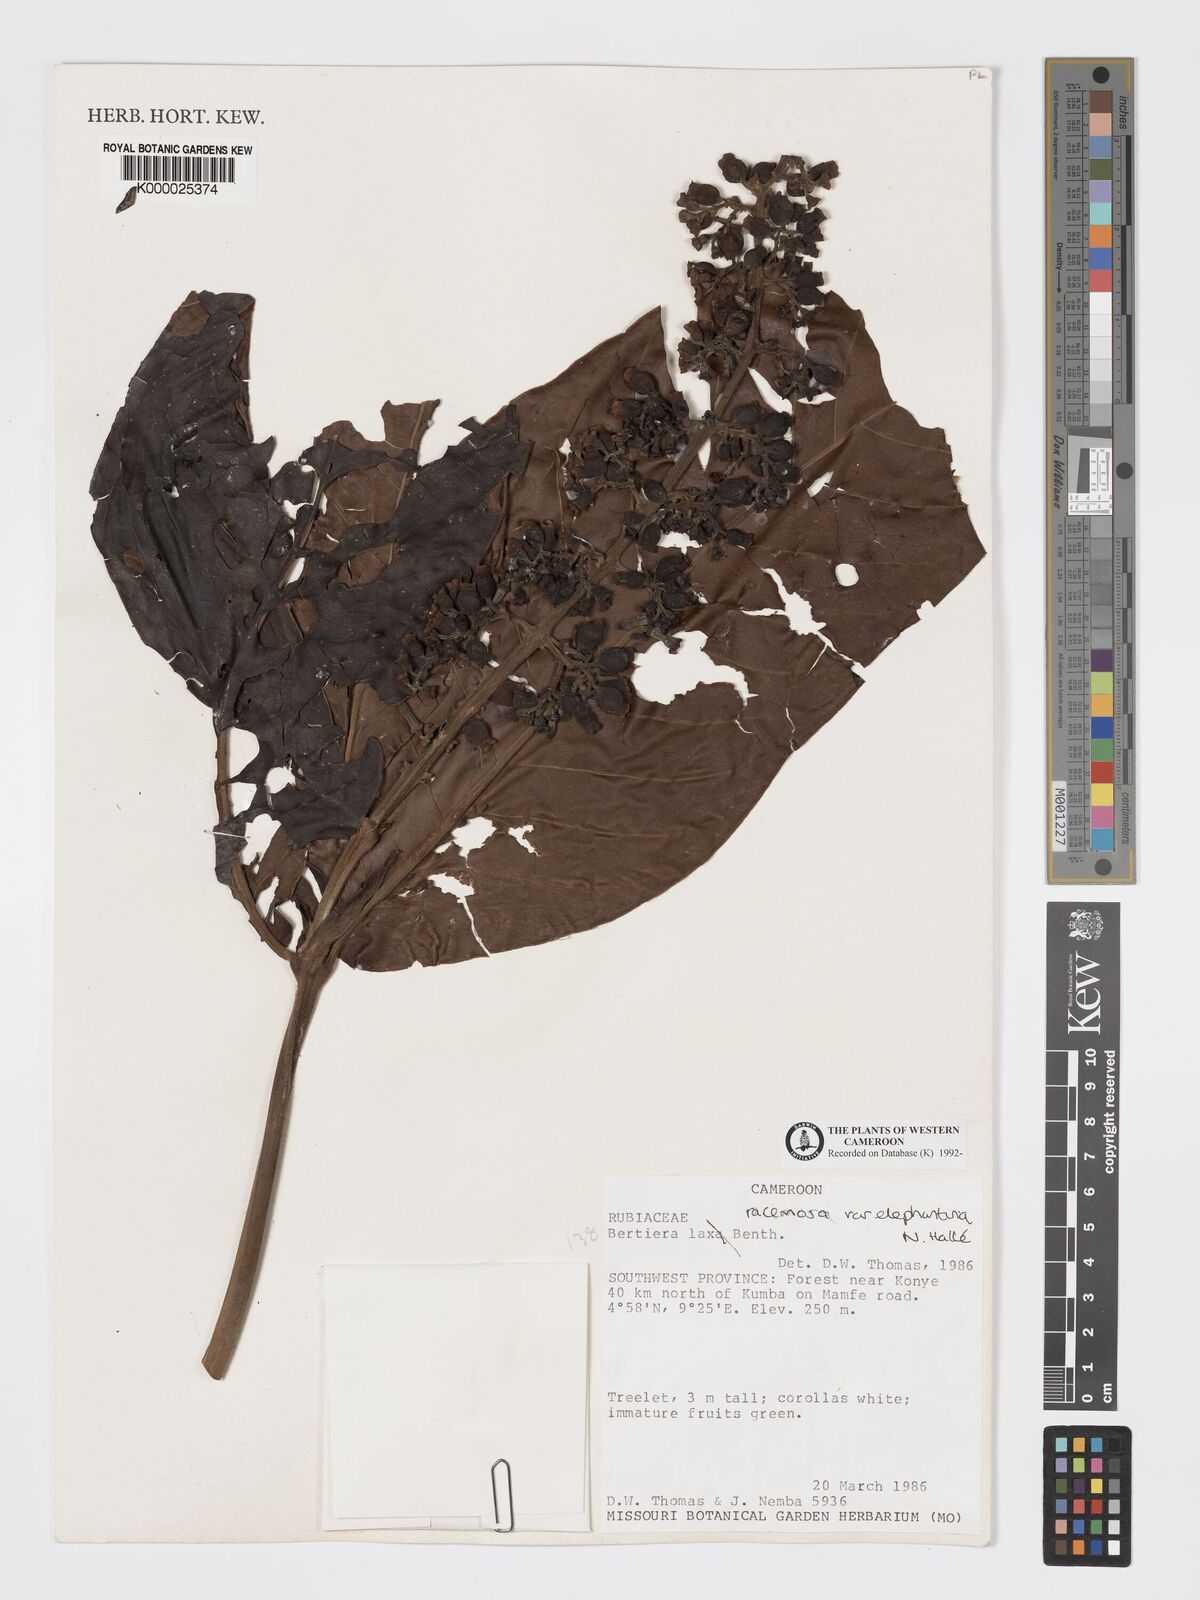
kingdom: Plantae
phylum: Tracheophyta
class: Magnoliopsida
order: Gentianales
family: Rubiaceae
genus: Bertiera
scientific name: Bertiera racemosa
